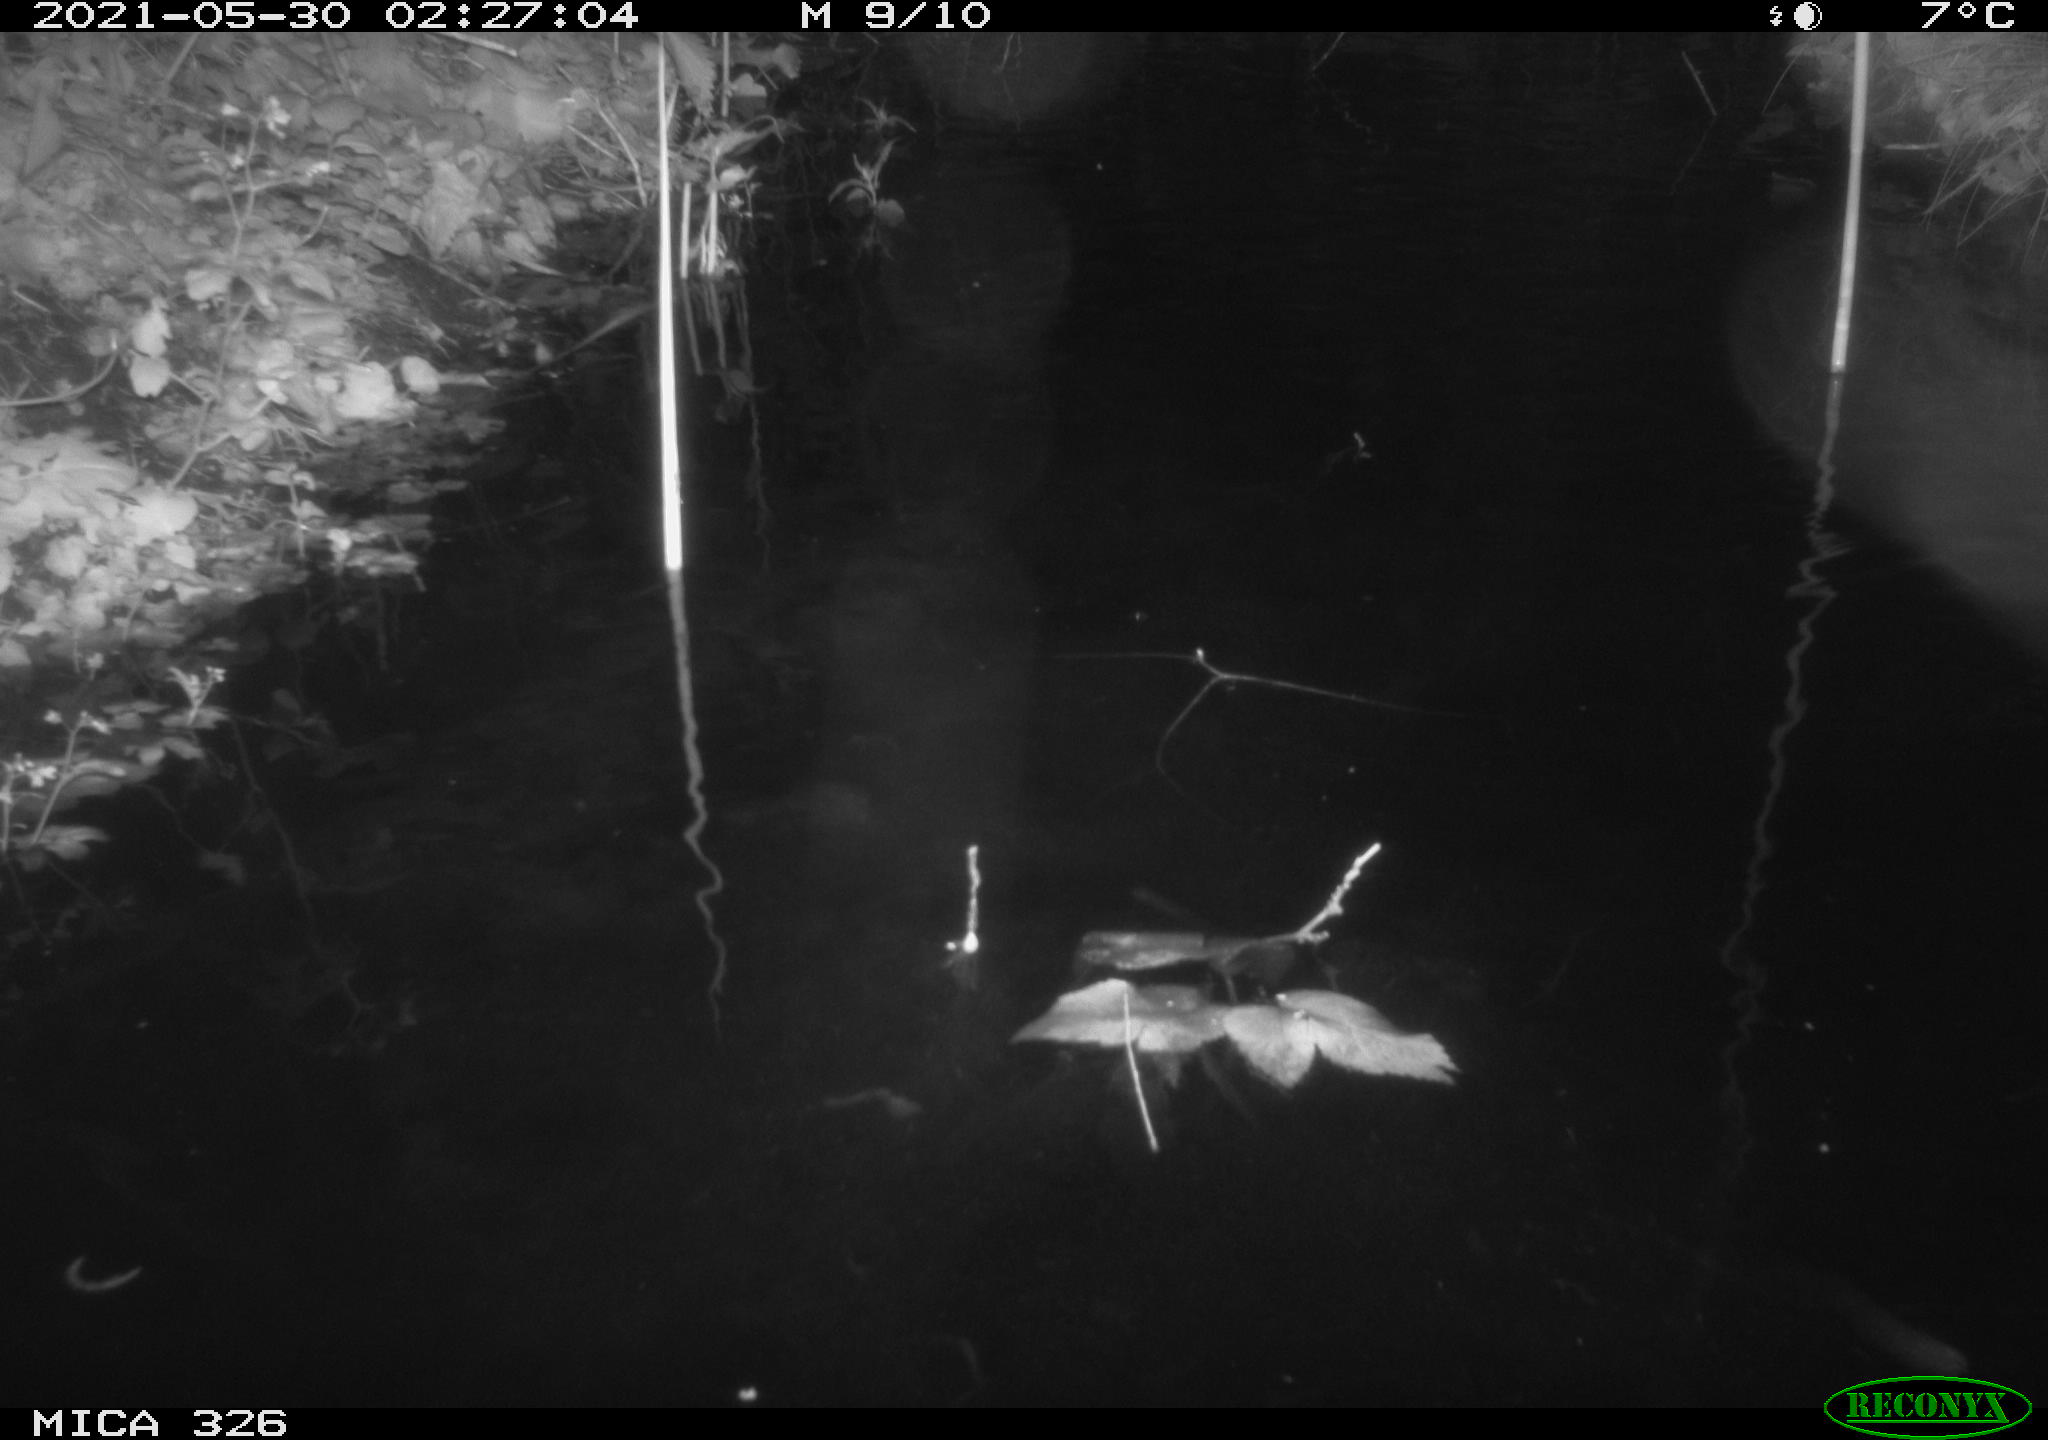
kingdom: Animalia
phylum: Chordata
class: Mammalia
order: Rodentia
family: Cricetidae
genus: Ondatra
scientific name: Ondatra zibethicus
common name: Muskrat
